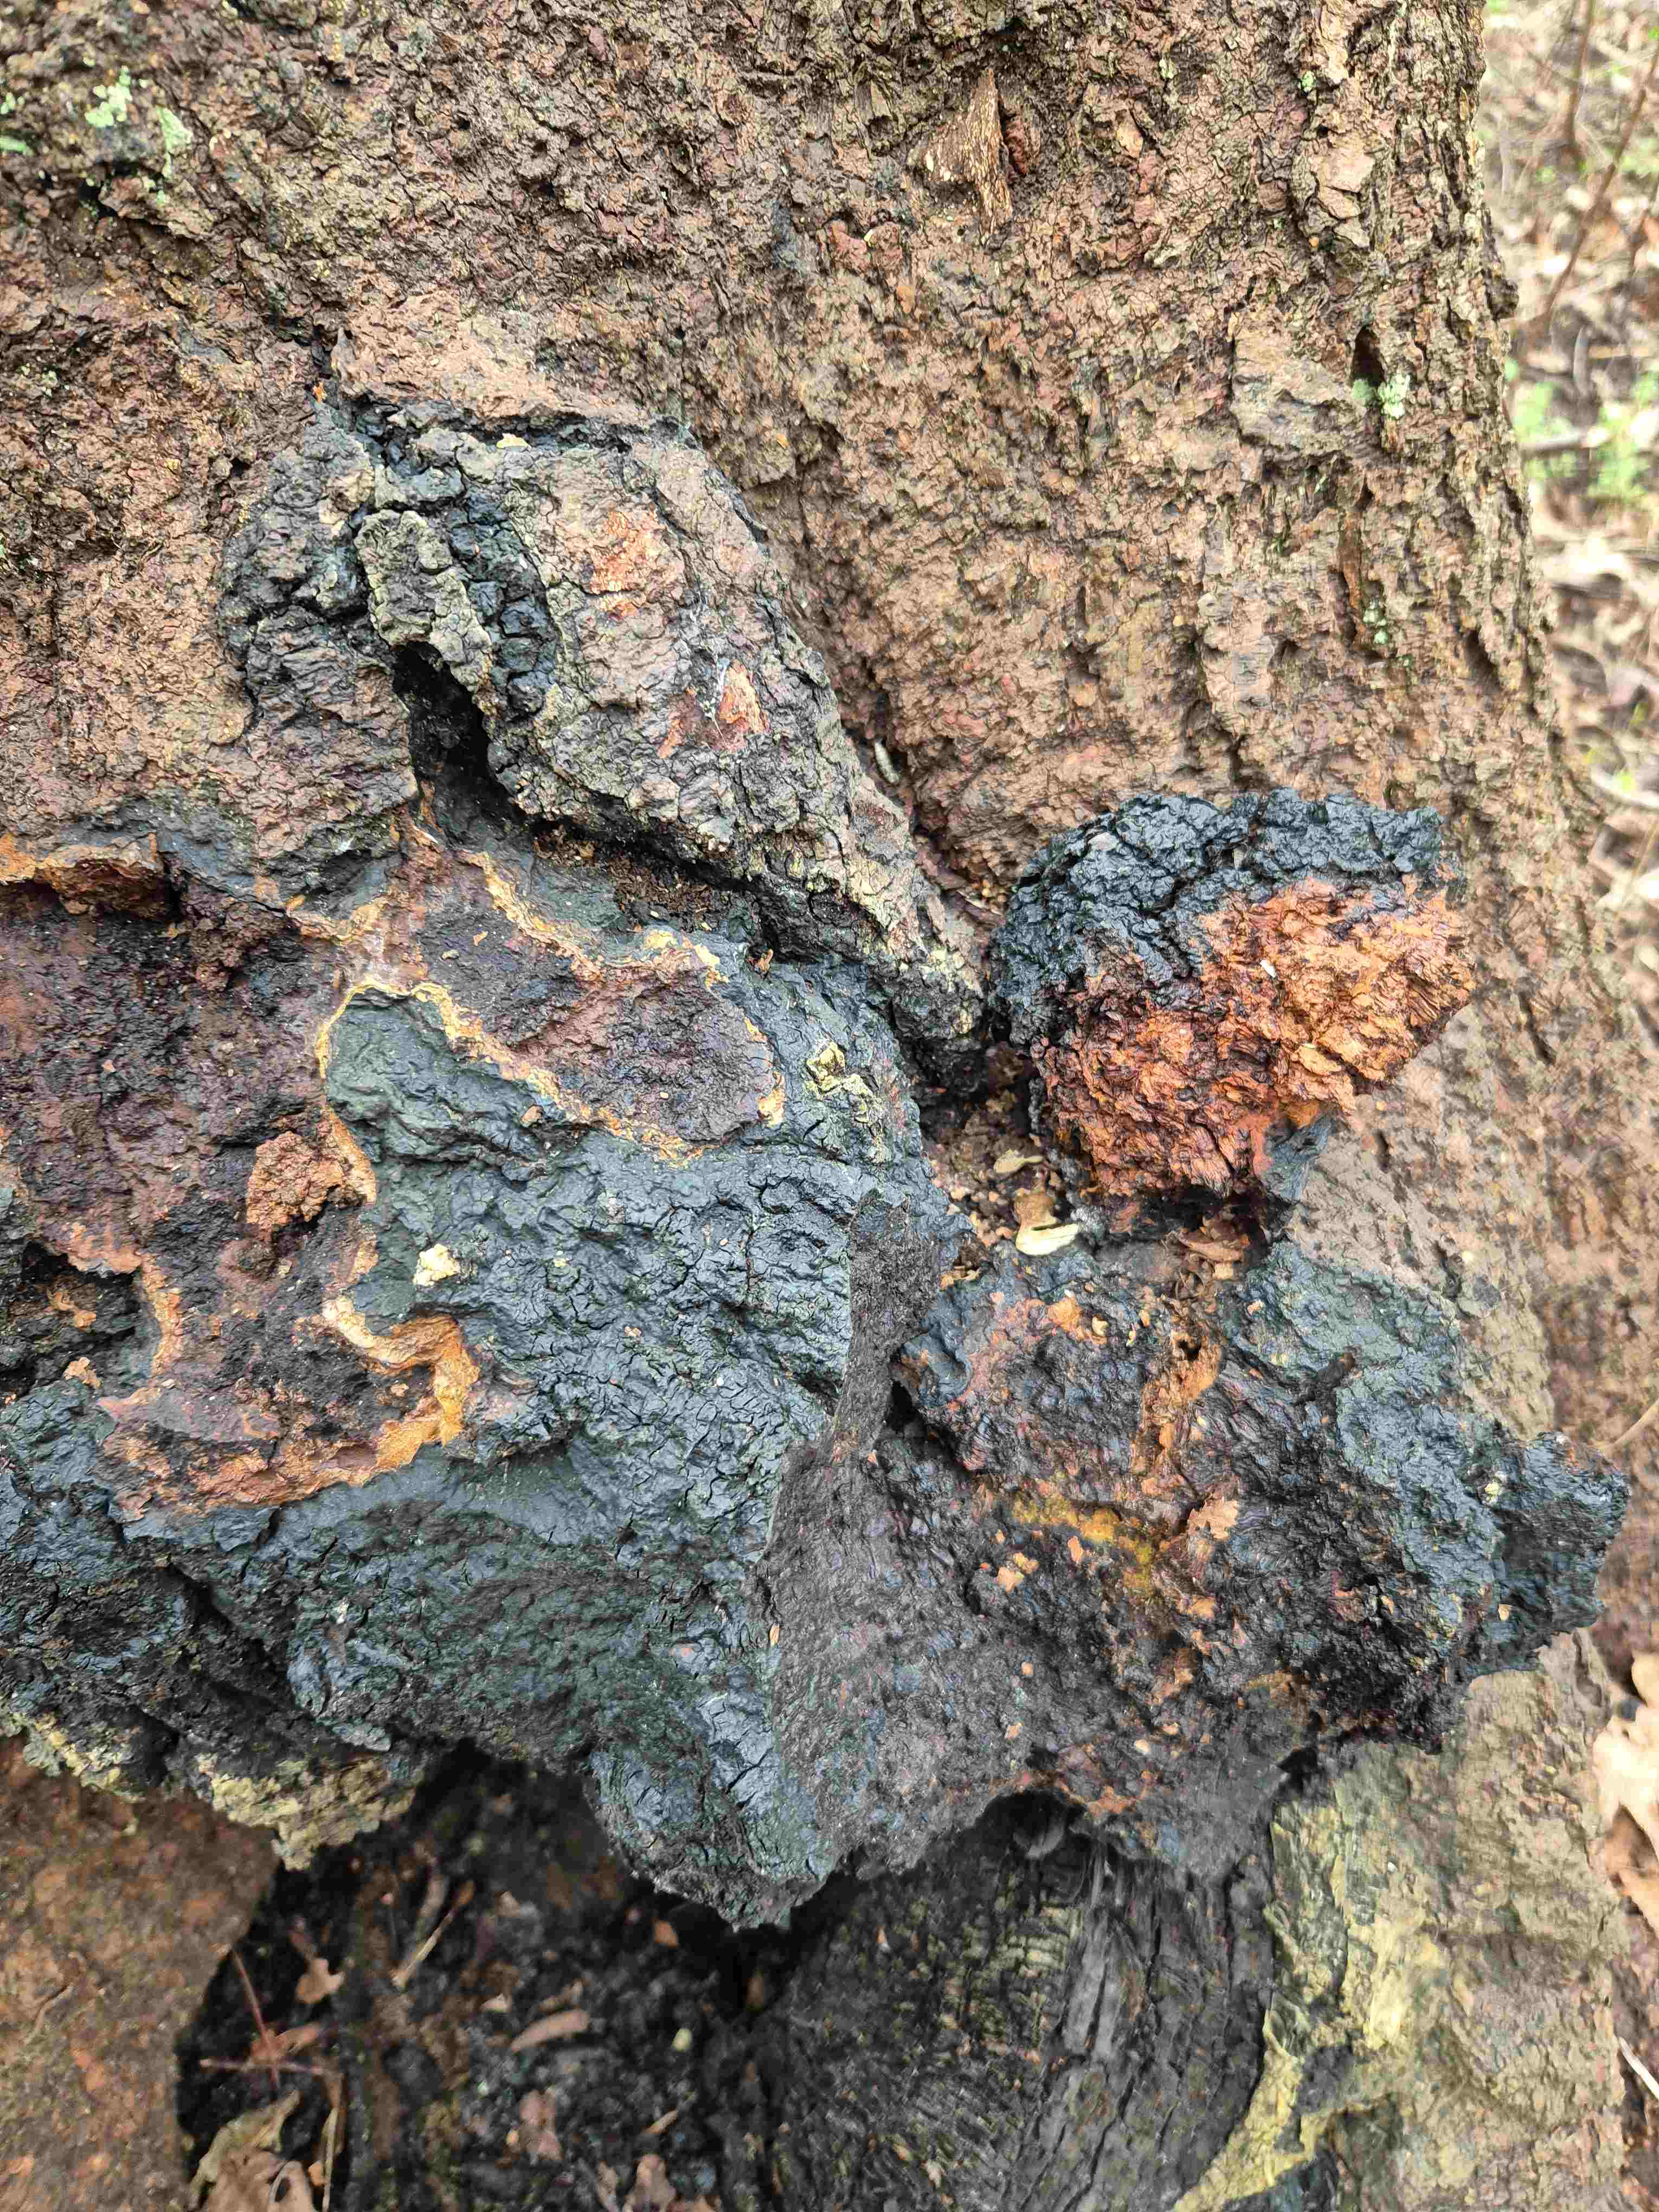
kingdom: Fungi
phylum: Basidiomycota
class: Agaricomycetes
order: Hymenochaetales
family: Hymenochaetaceae
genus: Inonotus
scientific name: Inonotus obliquus
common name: birke-spejlporesvamp
